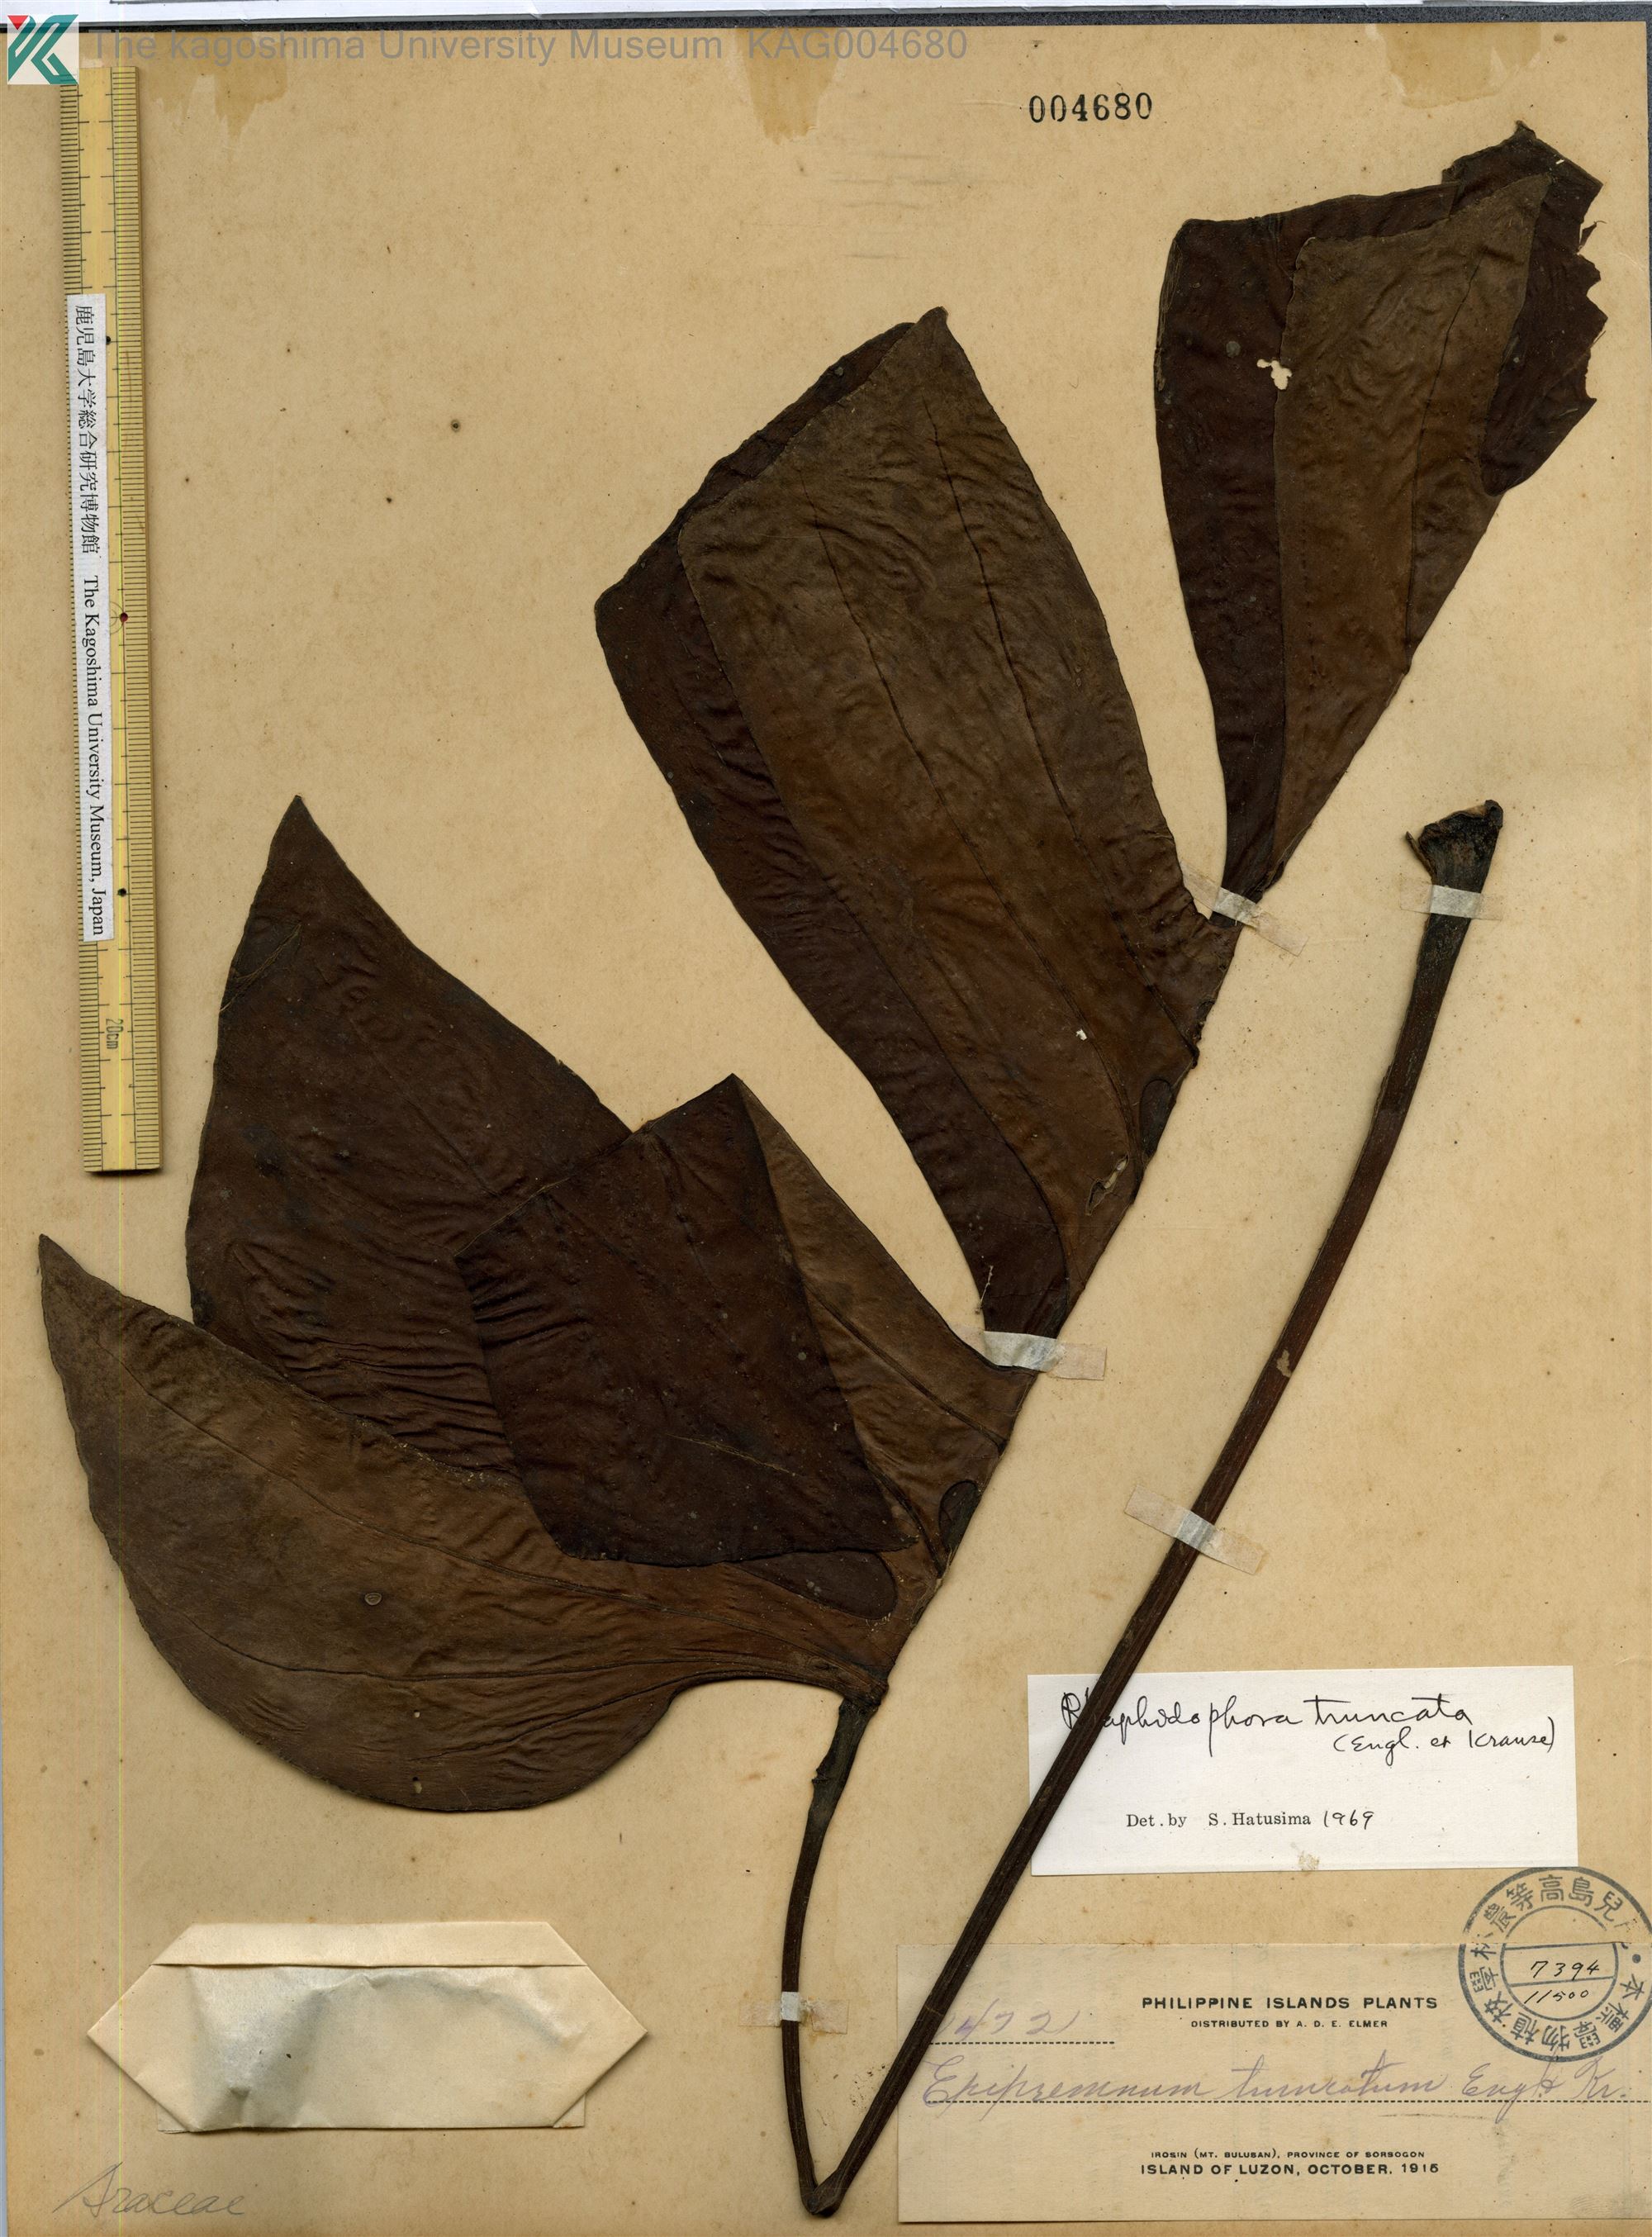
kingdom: Plantae
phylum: Tracheophyta
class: Liliopsida
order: Alismatales
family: Araceae
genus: Amydrium
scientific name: Amydrium medium
